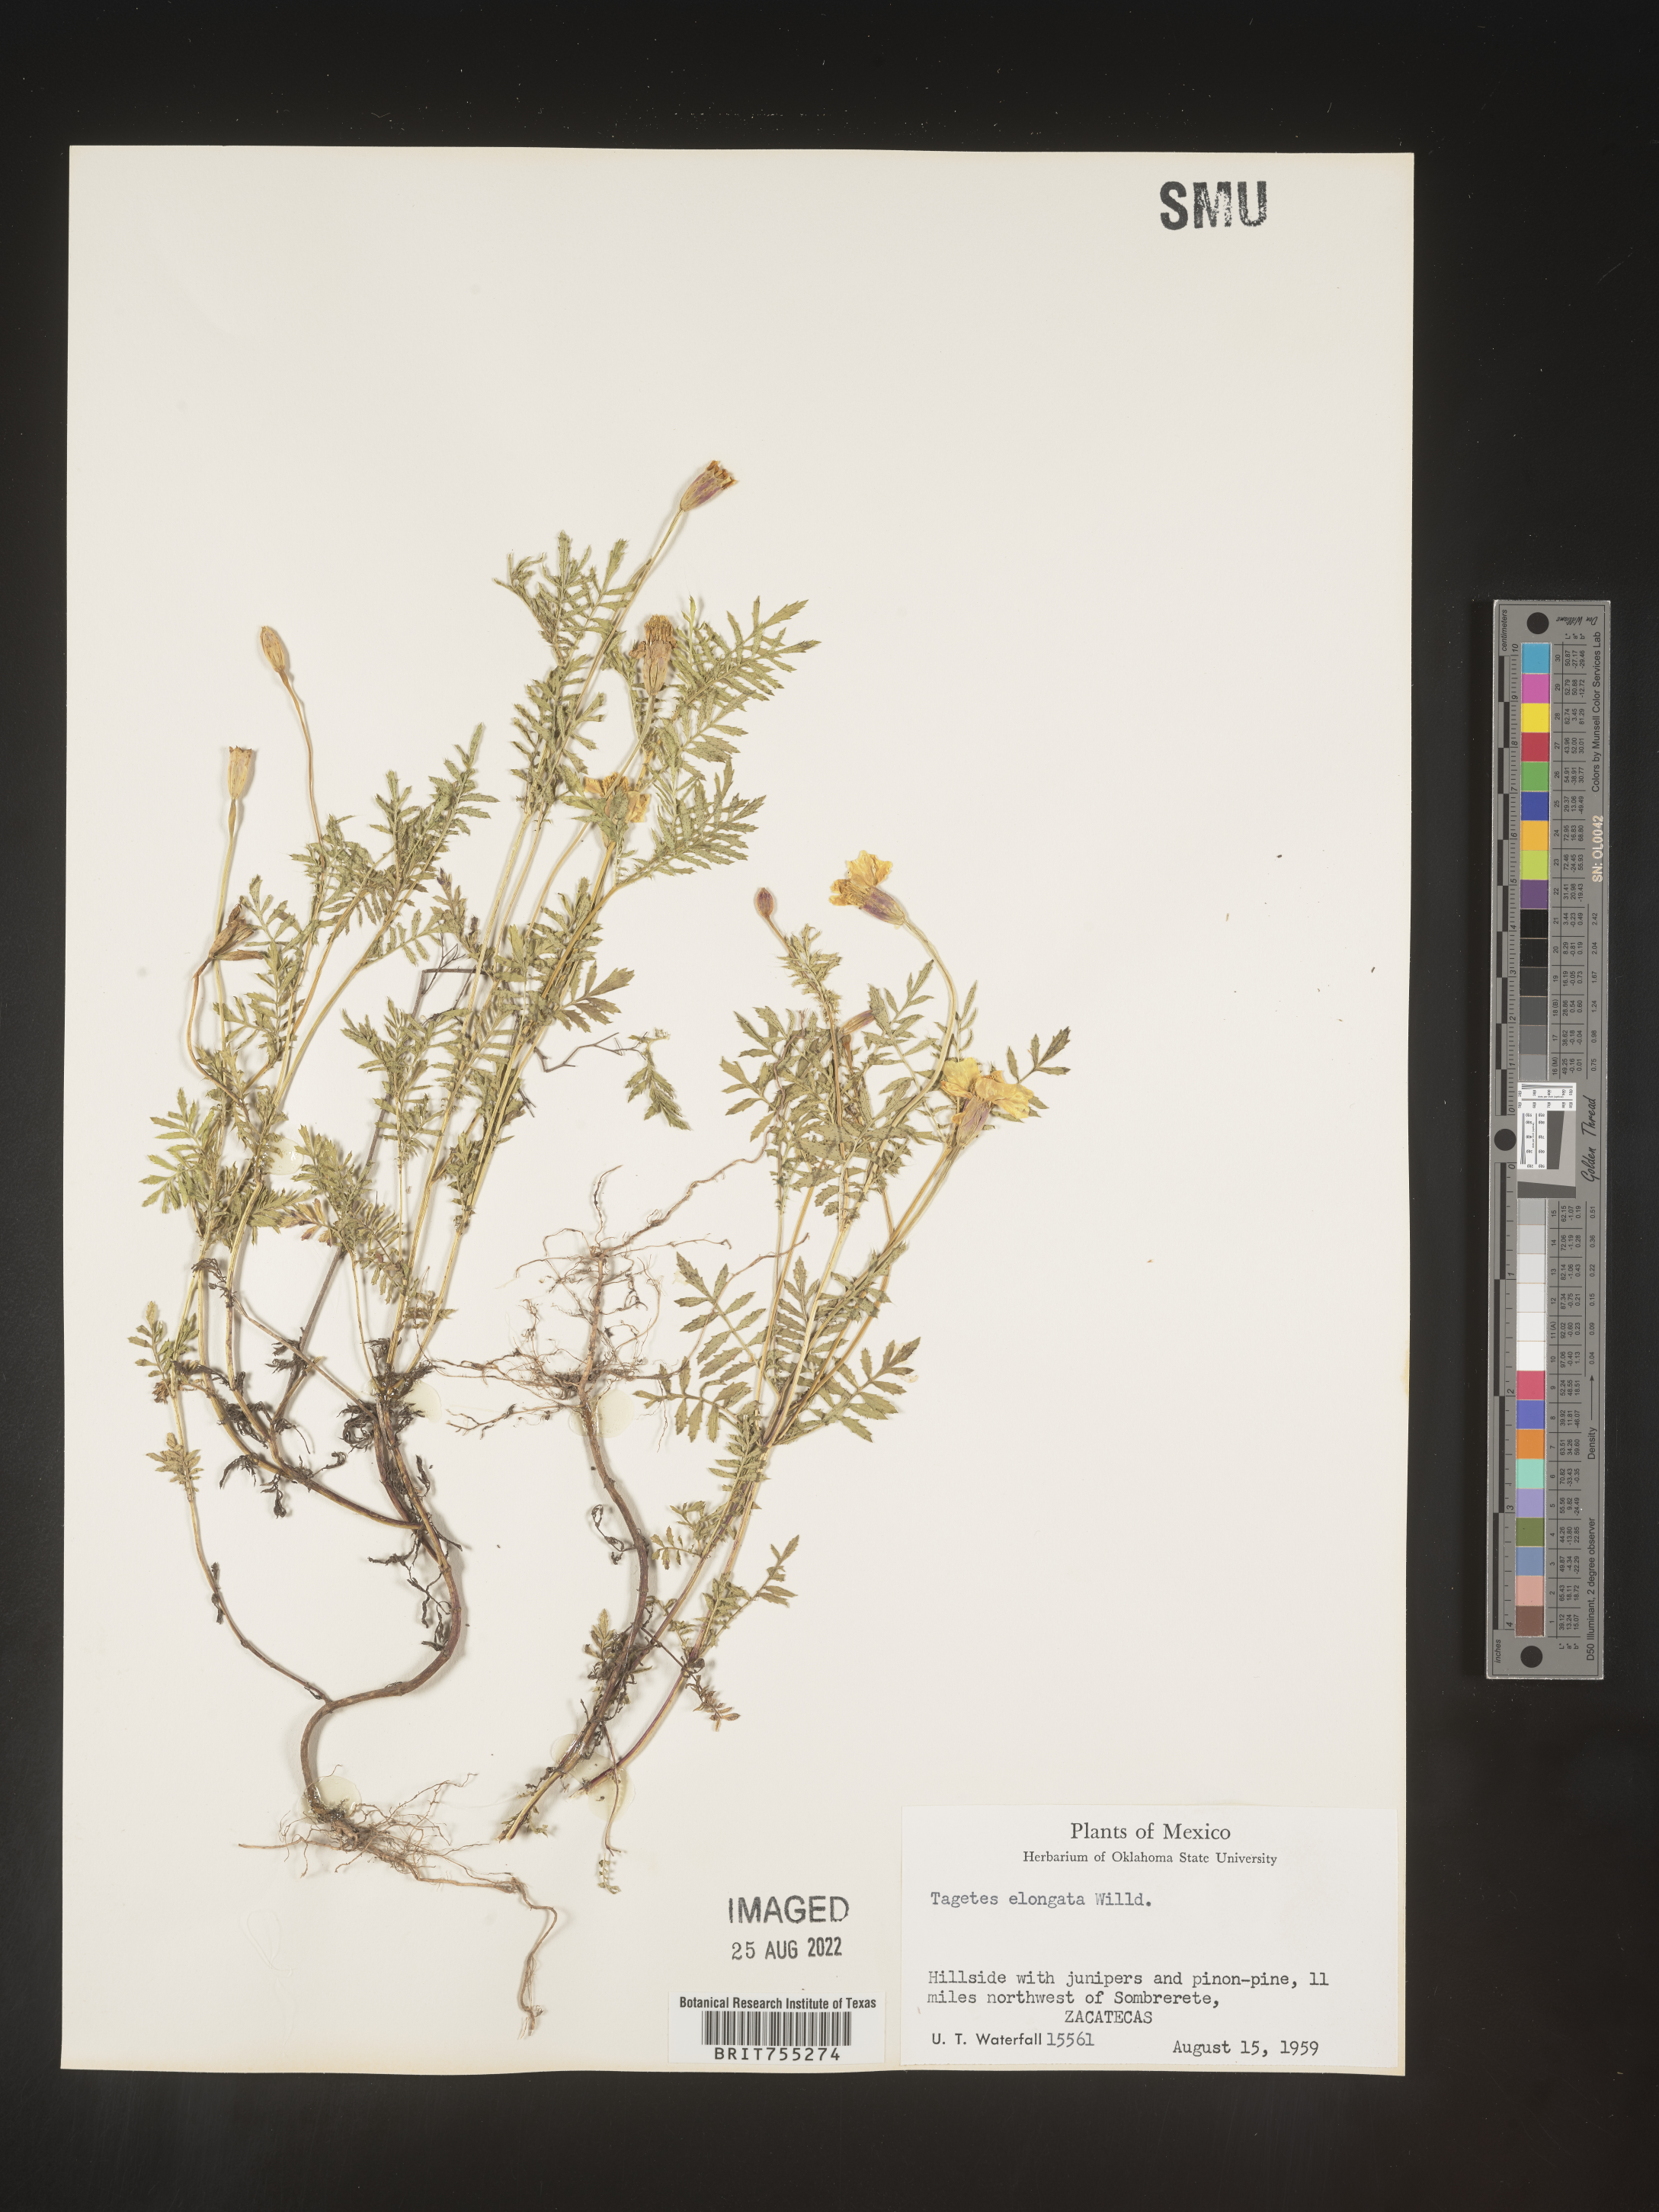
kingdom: Plantae
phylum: Tracheophyta
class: Magnoliopsida
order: Asterales
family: Asteraceae
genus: Tagetes
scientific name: Tagetes
